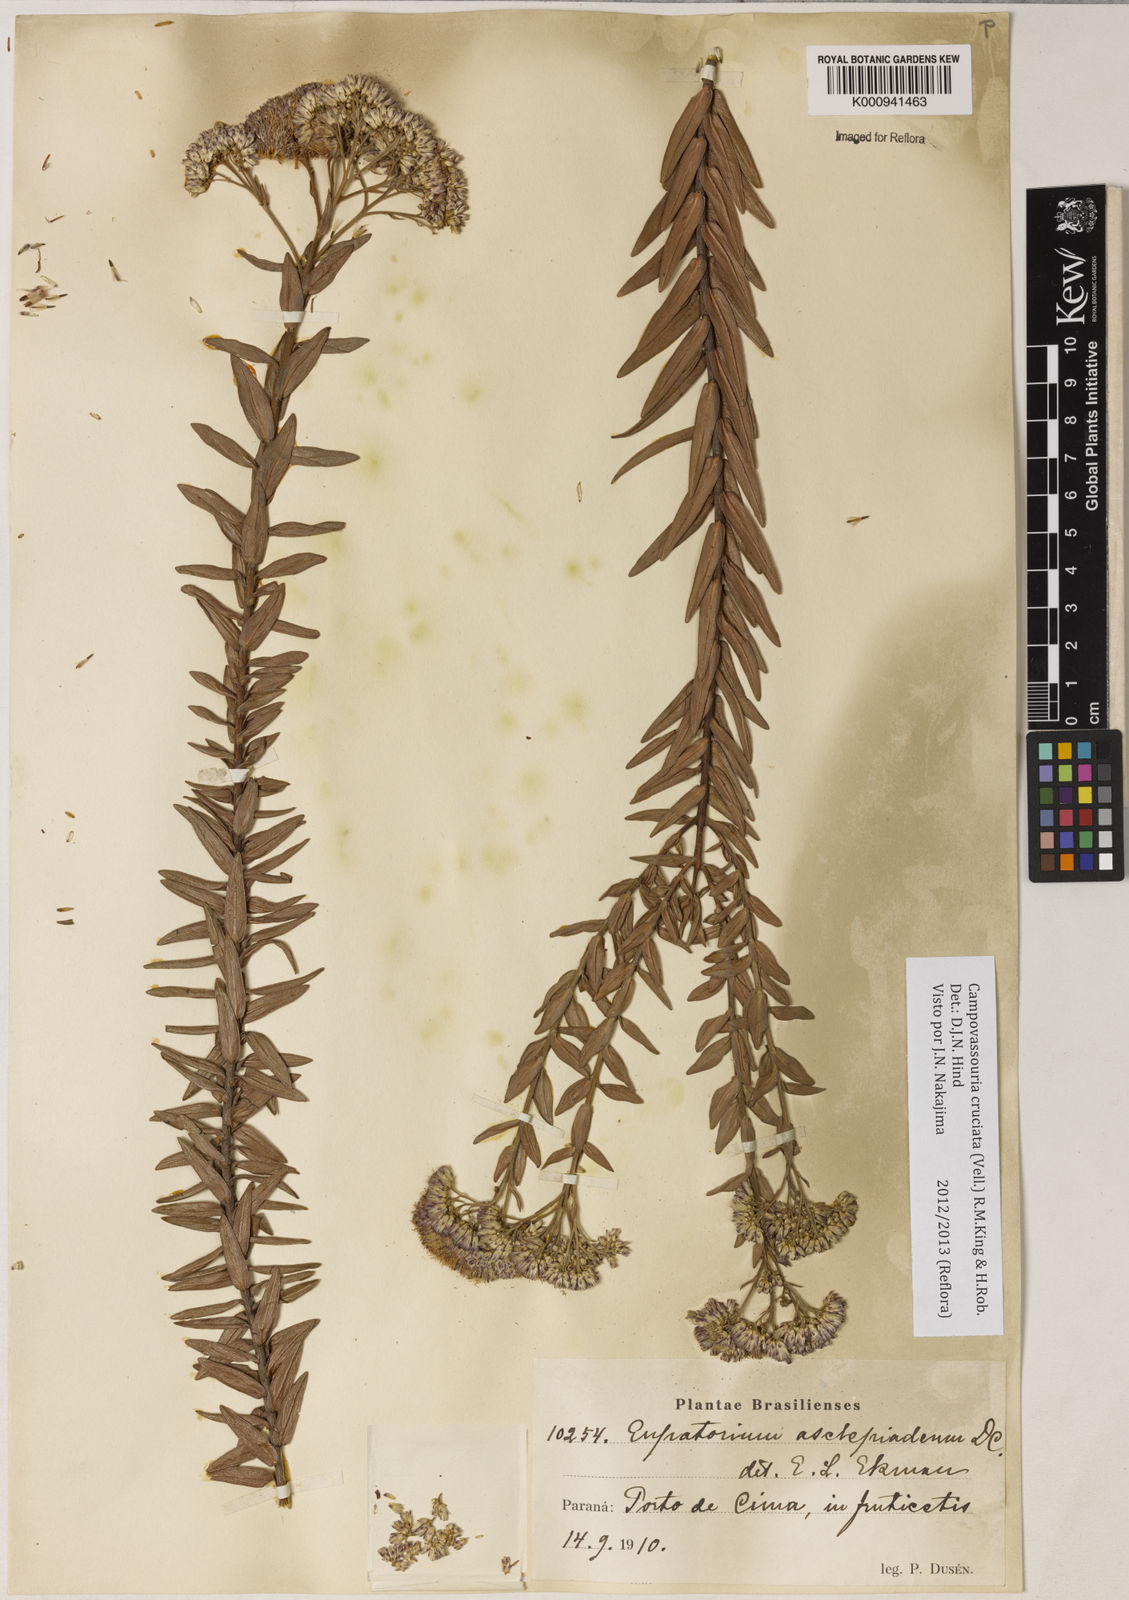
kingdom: Plantae
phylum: Tracheophyta
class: Magnoliopsida
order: Asterales
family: Asteraceae
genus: Campovassouria
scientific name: Campovassouria cruciata
